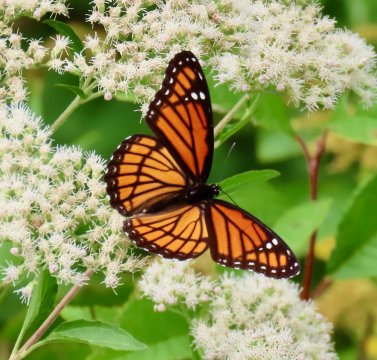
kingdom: Animalia
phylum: Arthropoda
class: Insecta
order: Lepidoptera
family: Nymphalidae
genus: Limenitis
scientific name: Limenitis archippus
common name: Viceroy
